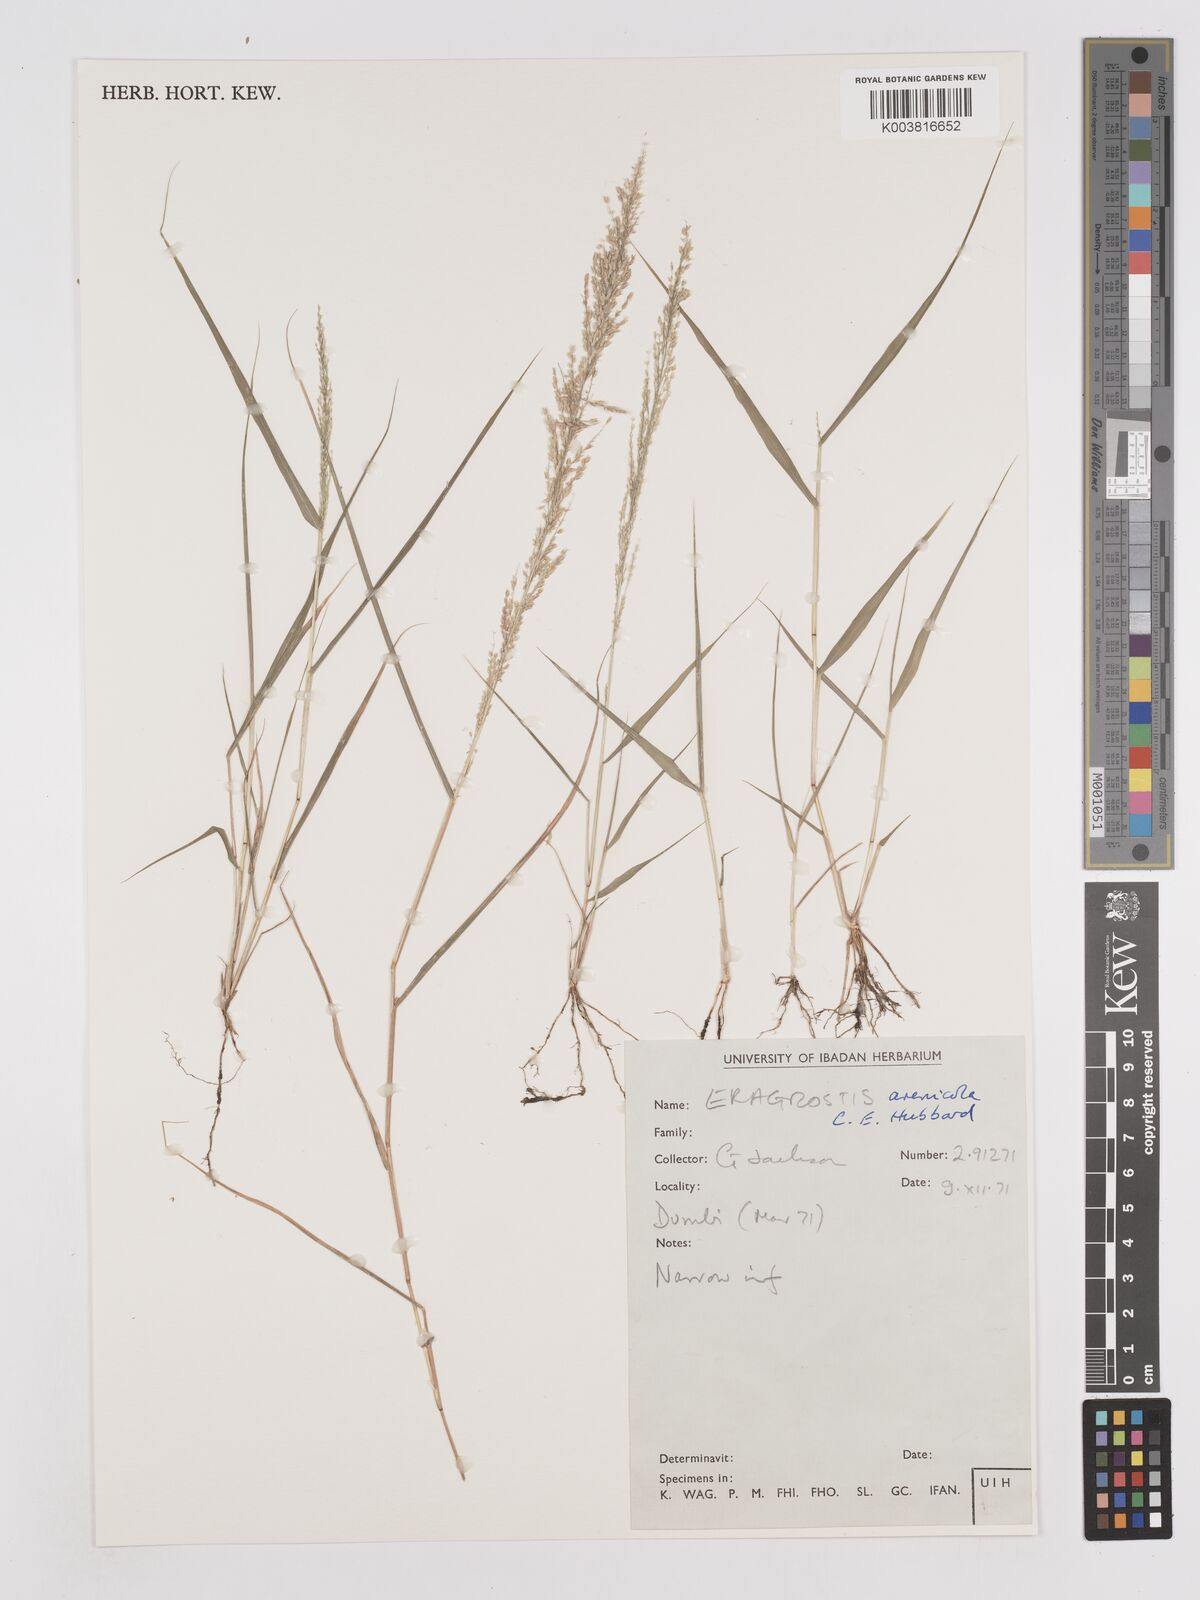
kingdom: Plantae
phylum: Tracheophyta
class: Liliopsida
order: Poales
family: Poaceae
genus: Eragrostis
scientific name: Eragrostis arenicola
